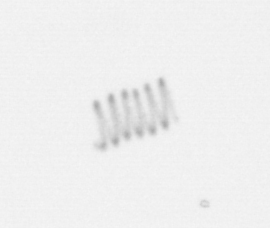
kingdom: Chromista
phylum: Ochrophyta
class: Bacillariophyceae
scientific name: Bacillariophyceae
